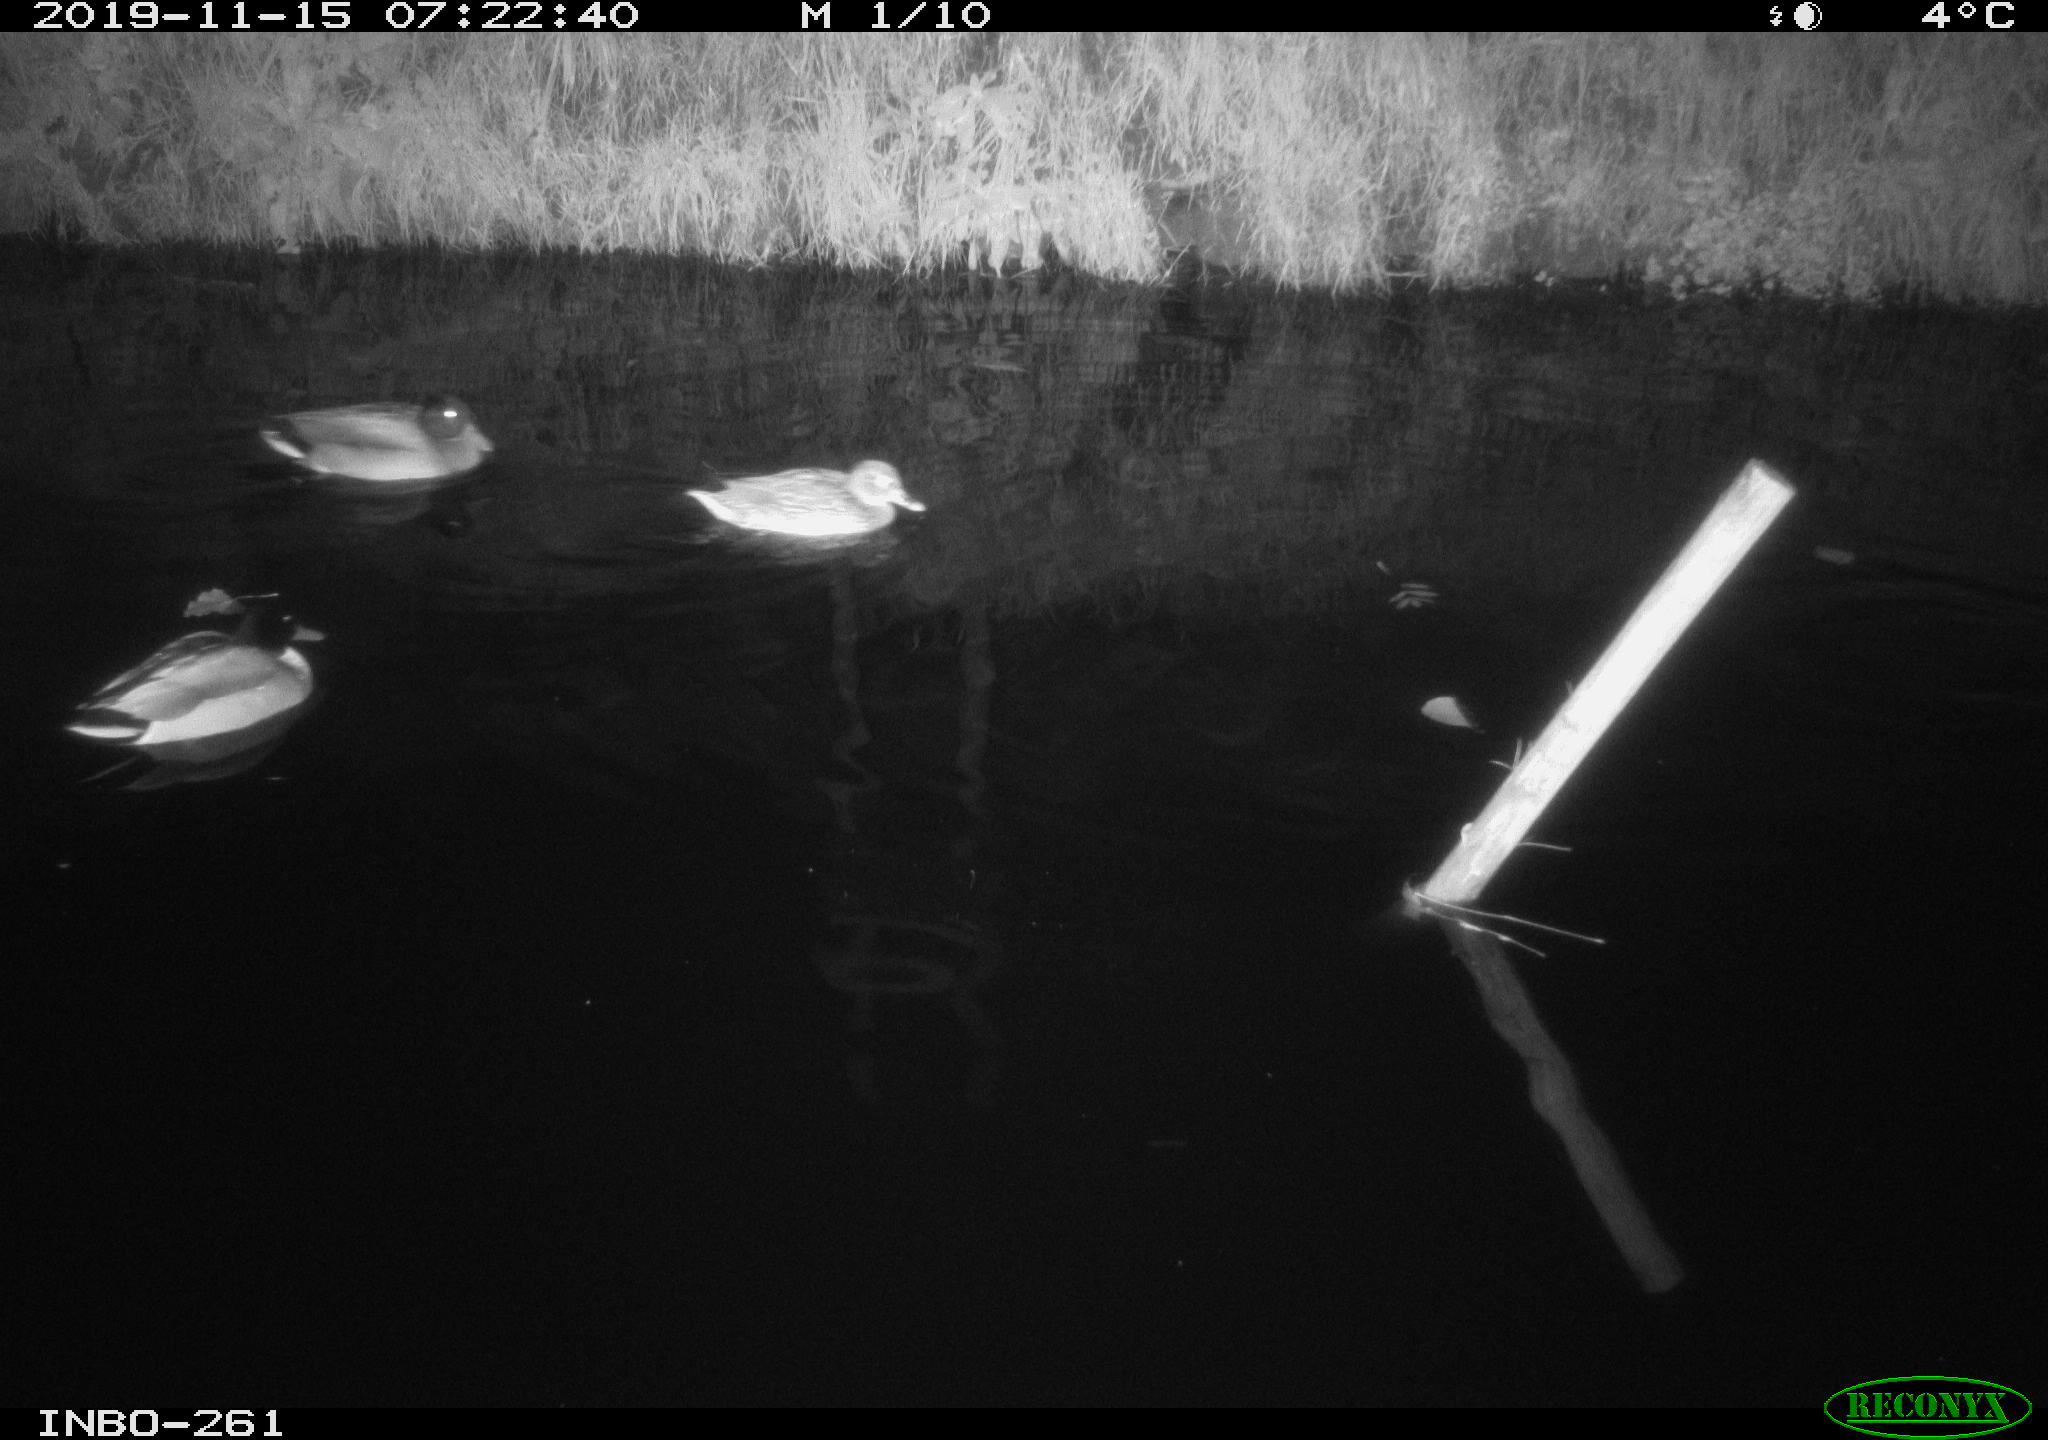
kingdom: Animalia
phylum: Chordata
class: Aves
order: Anseriformes
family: Anatidae
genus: Anas
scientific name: Anas platyrhynchos
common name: Mallard
